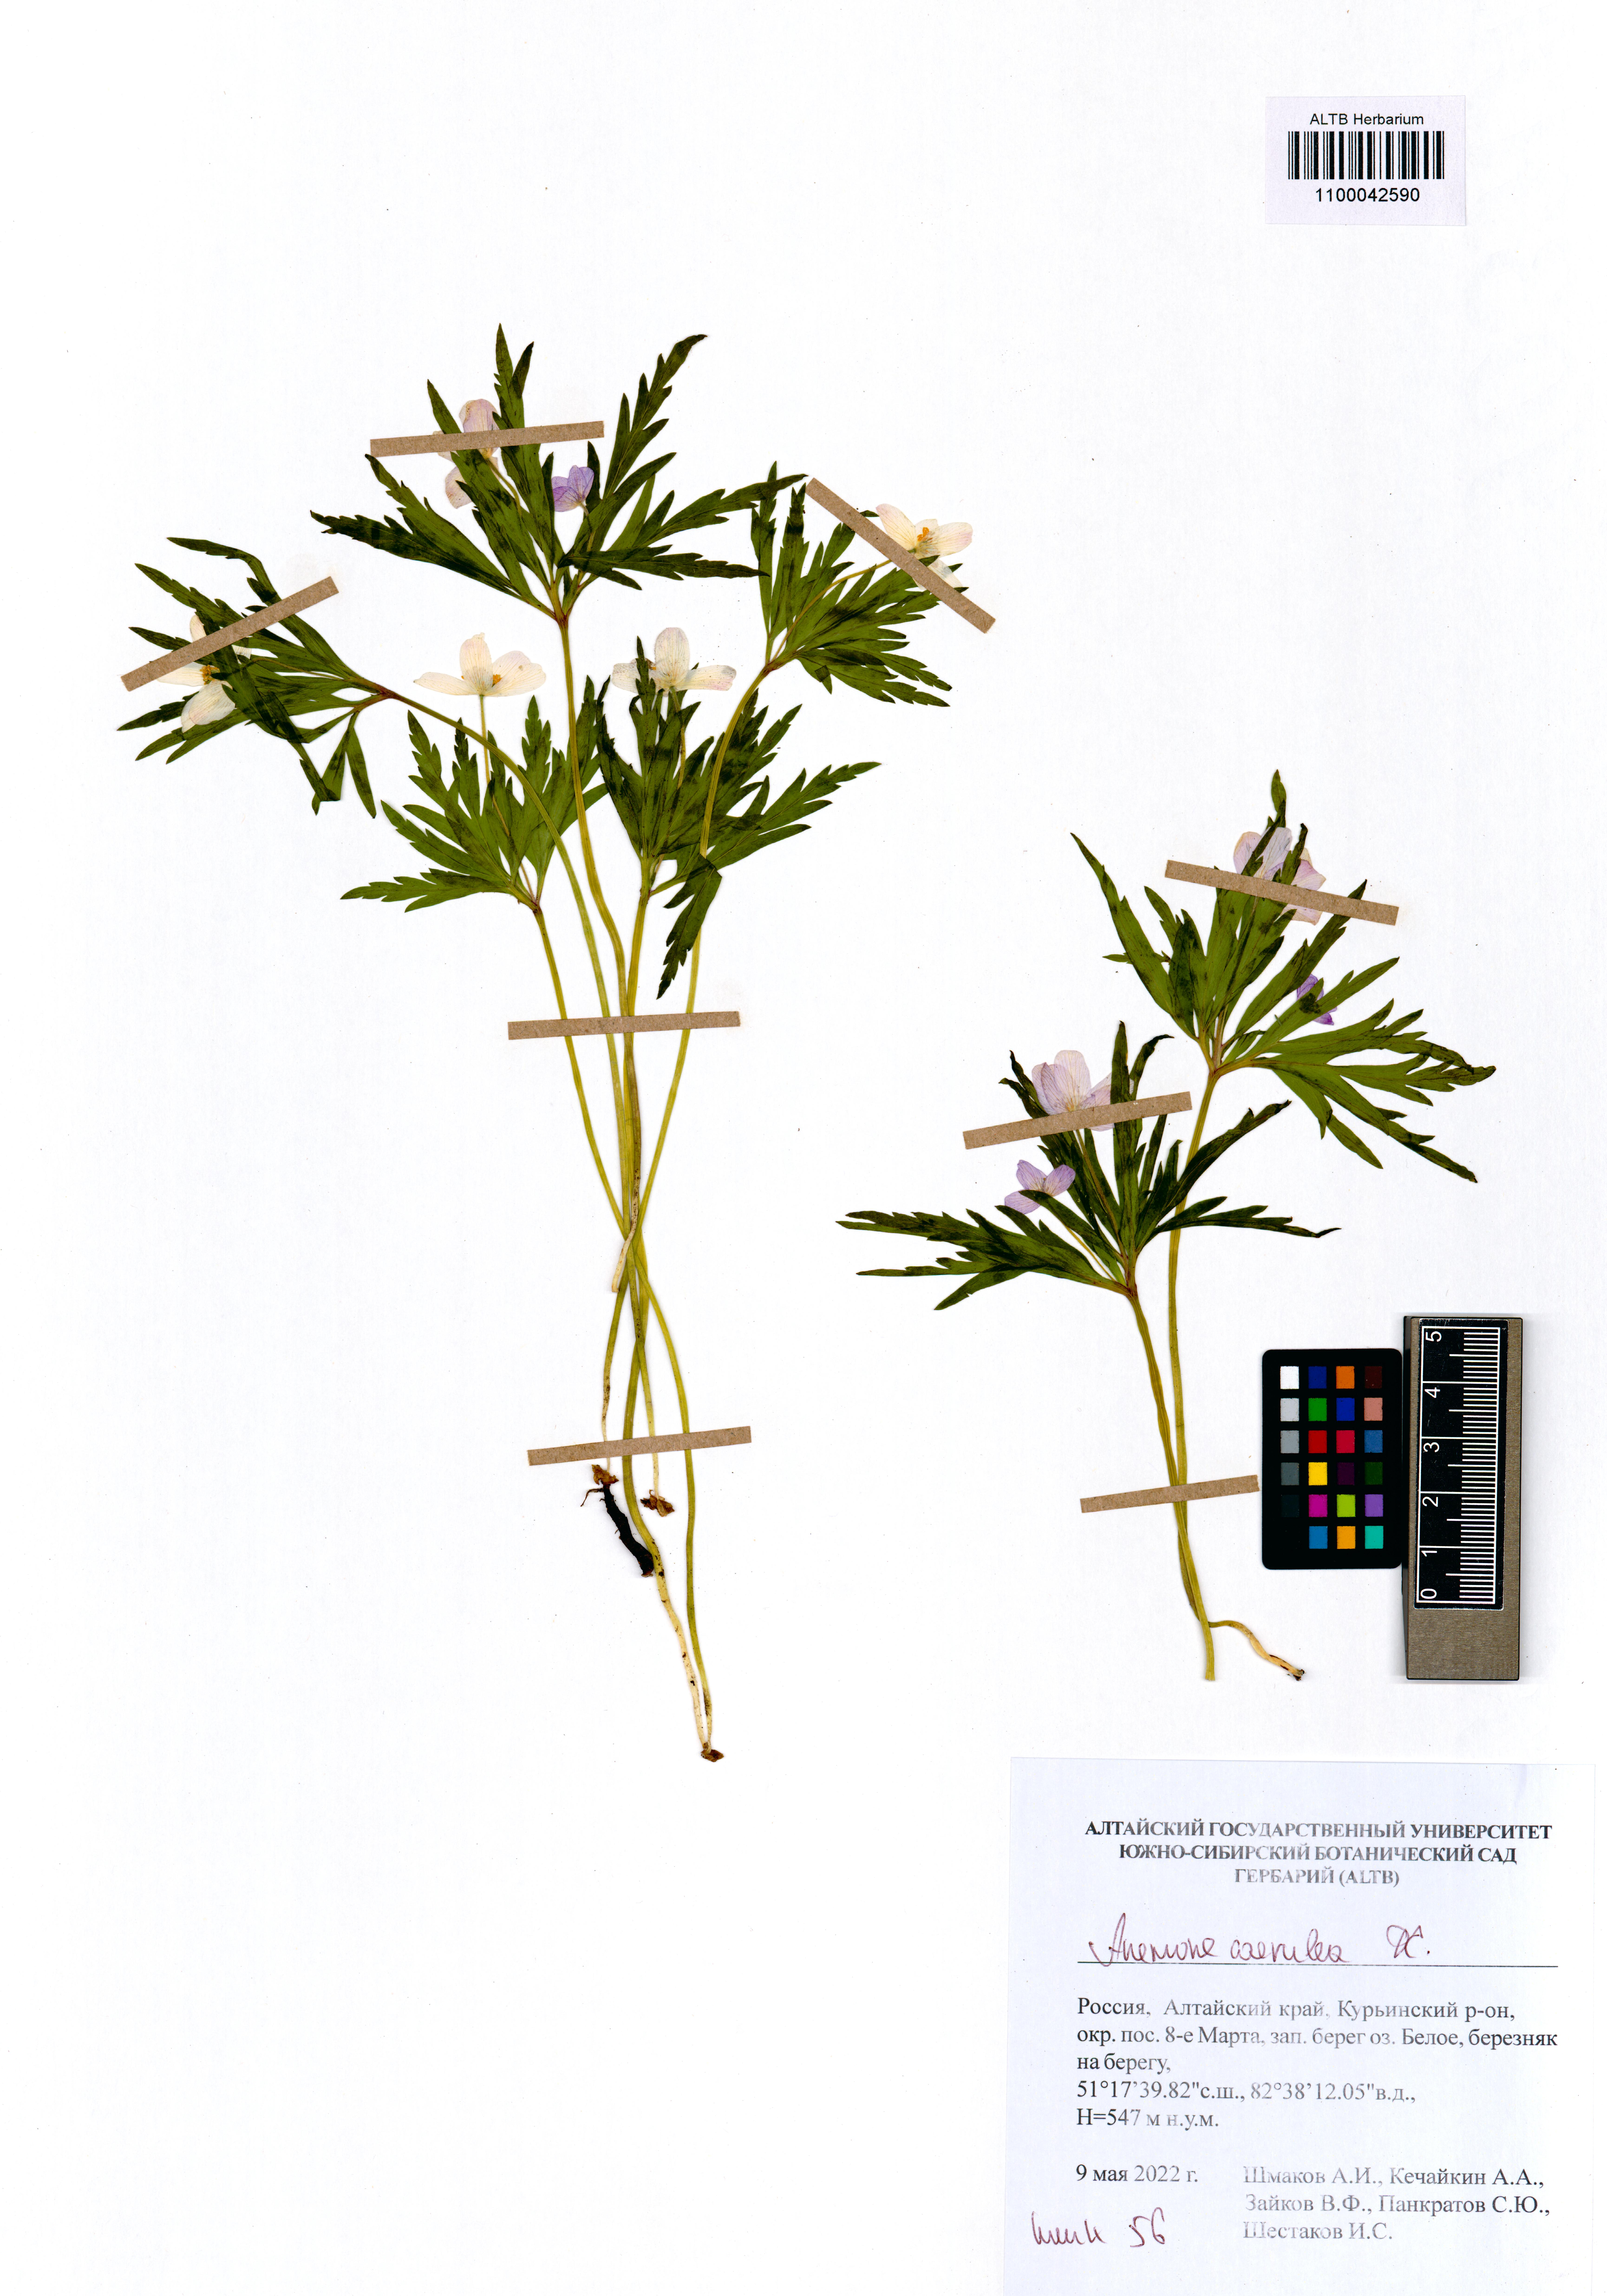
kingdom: Plantae
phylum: Tracheophyta
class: Magnoliopsida
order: Ranunculales
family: Ranunculaceae
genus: Anemone
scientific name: Anemone caerulea
